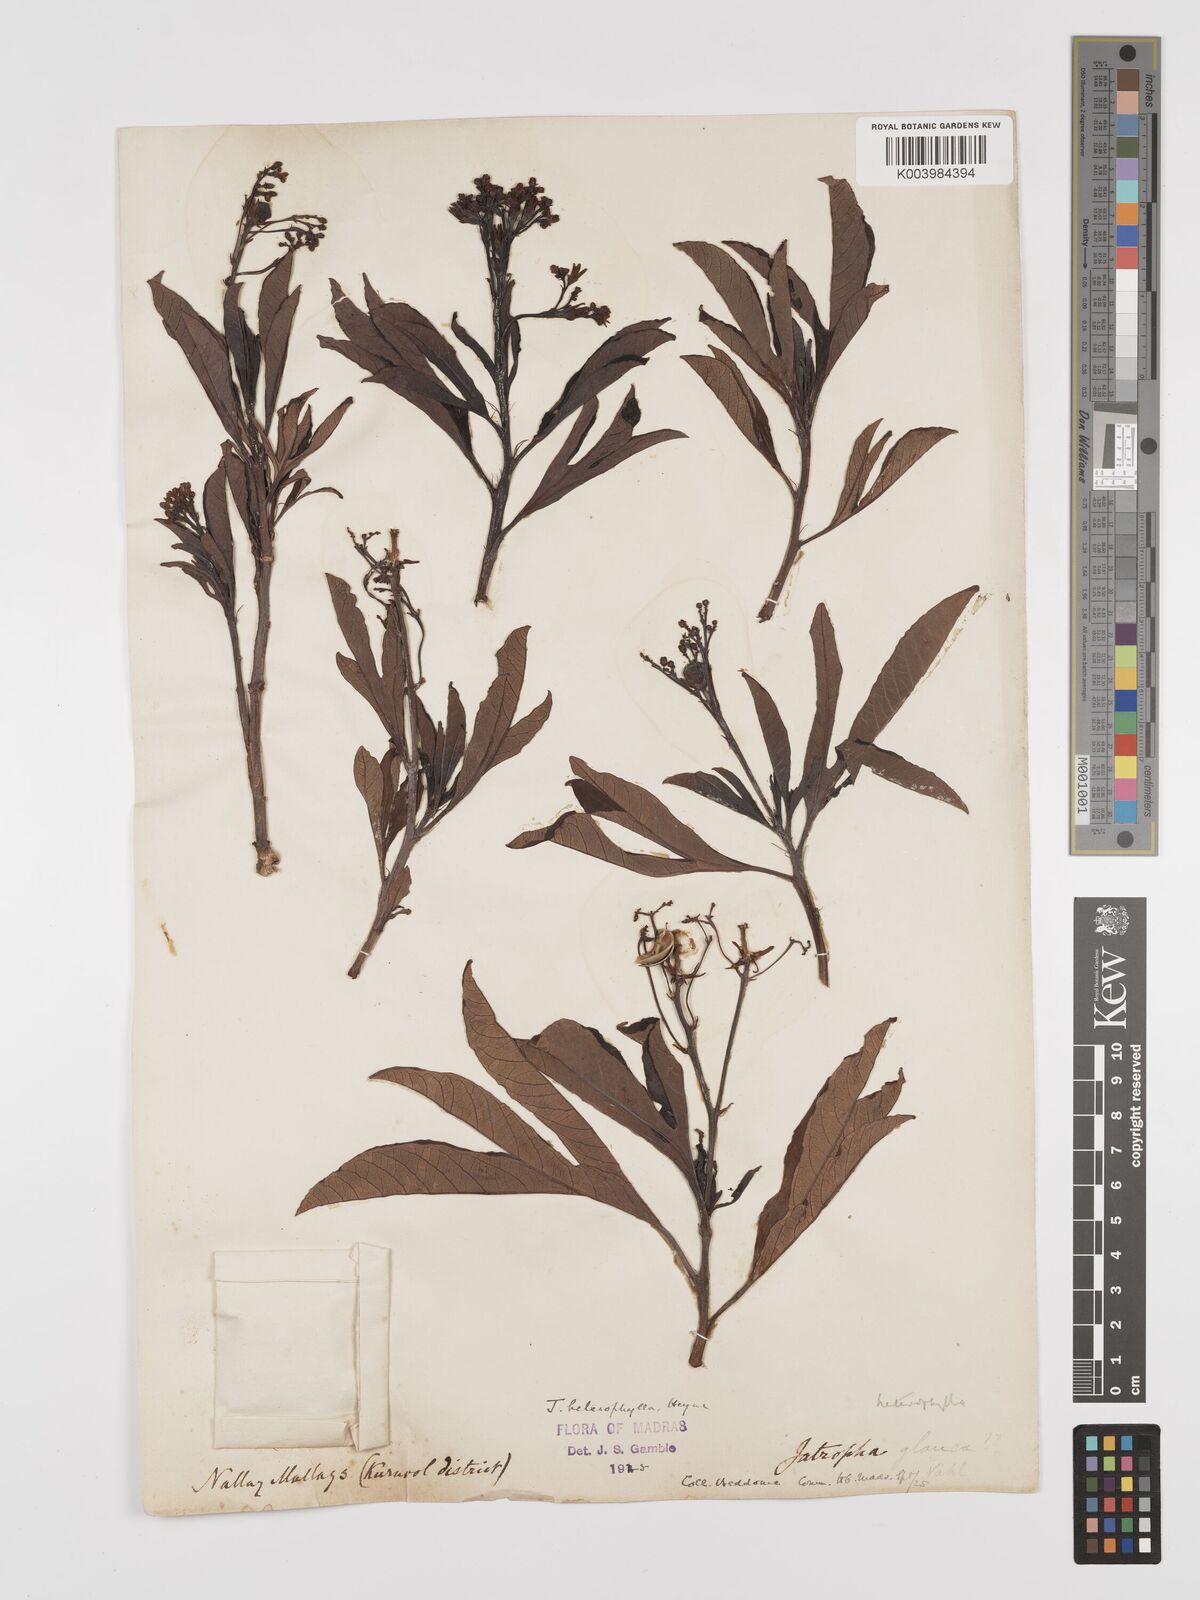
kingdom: Plantae
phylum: Tracheophyta
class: Magnoliopsida
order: Malpighiales
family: Euphorbiaceae
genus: Jatropha
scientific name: Jatropha
